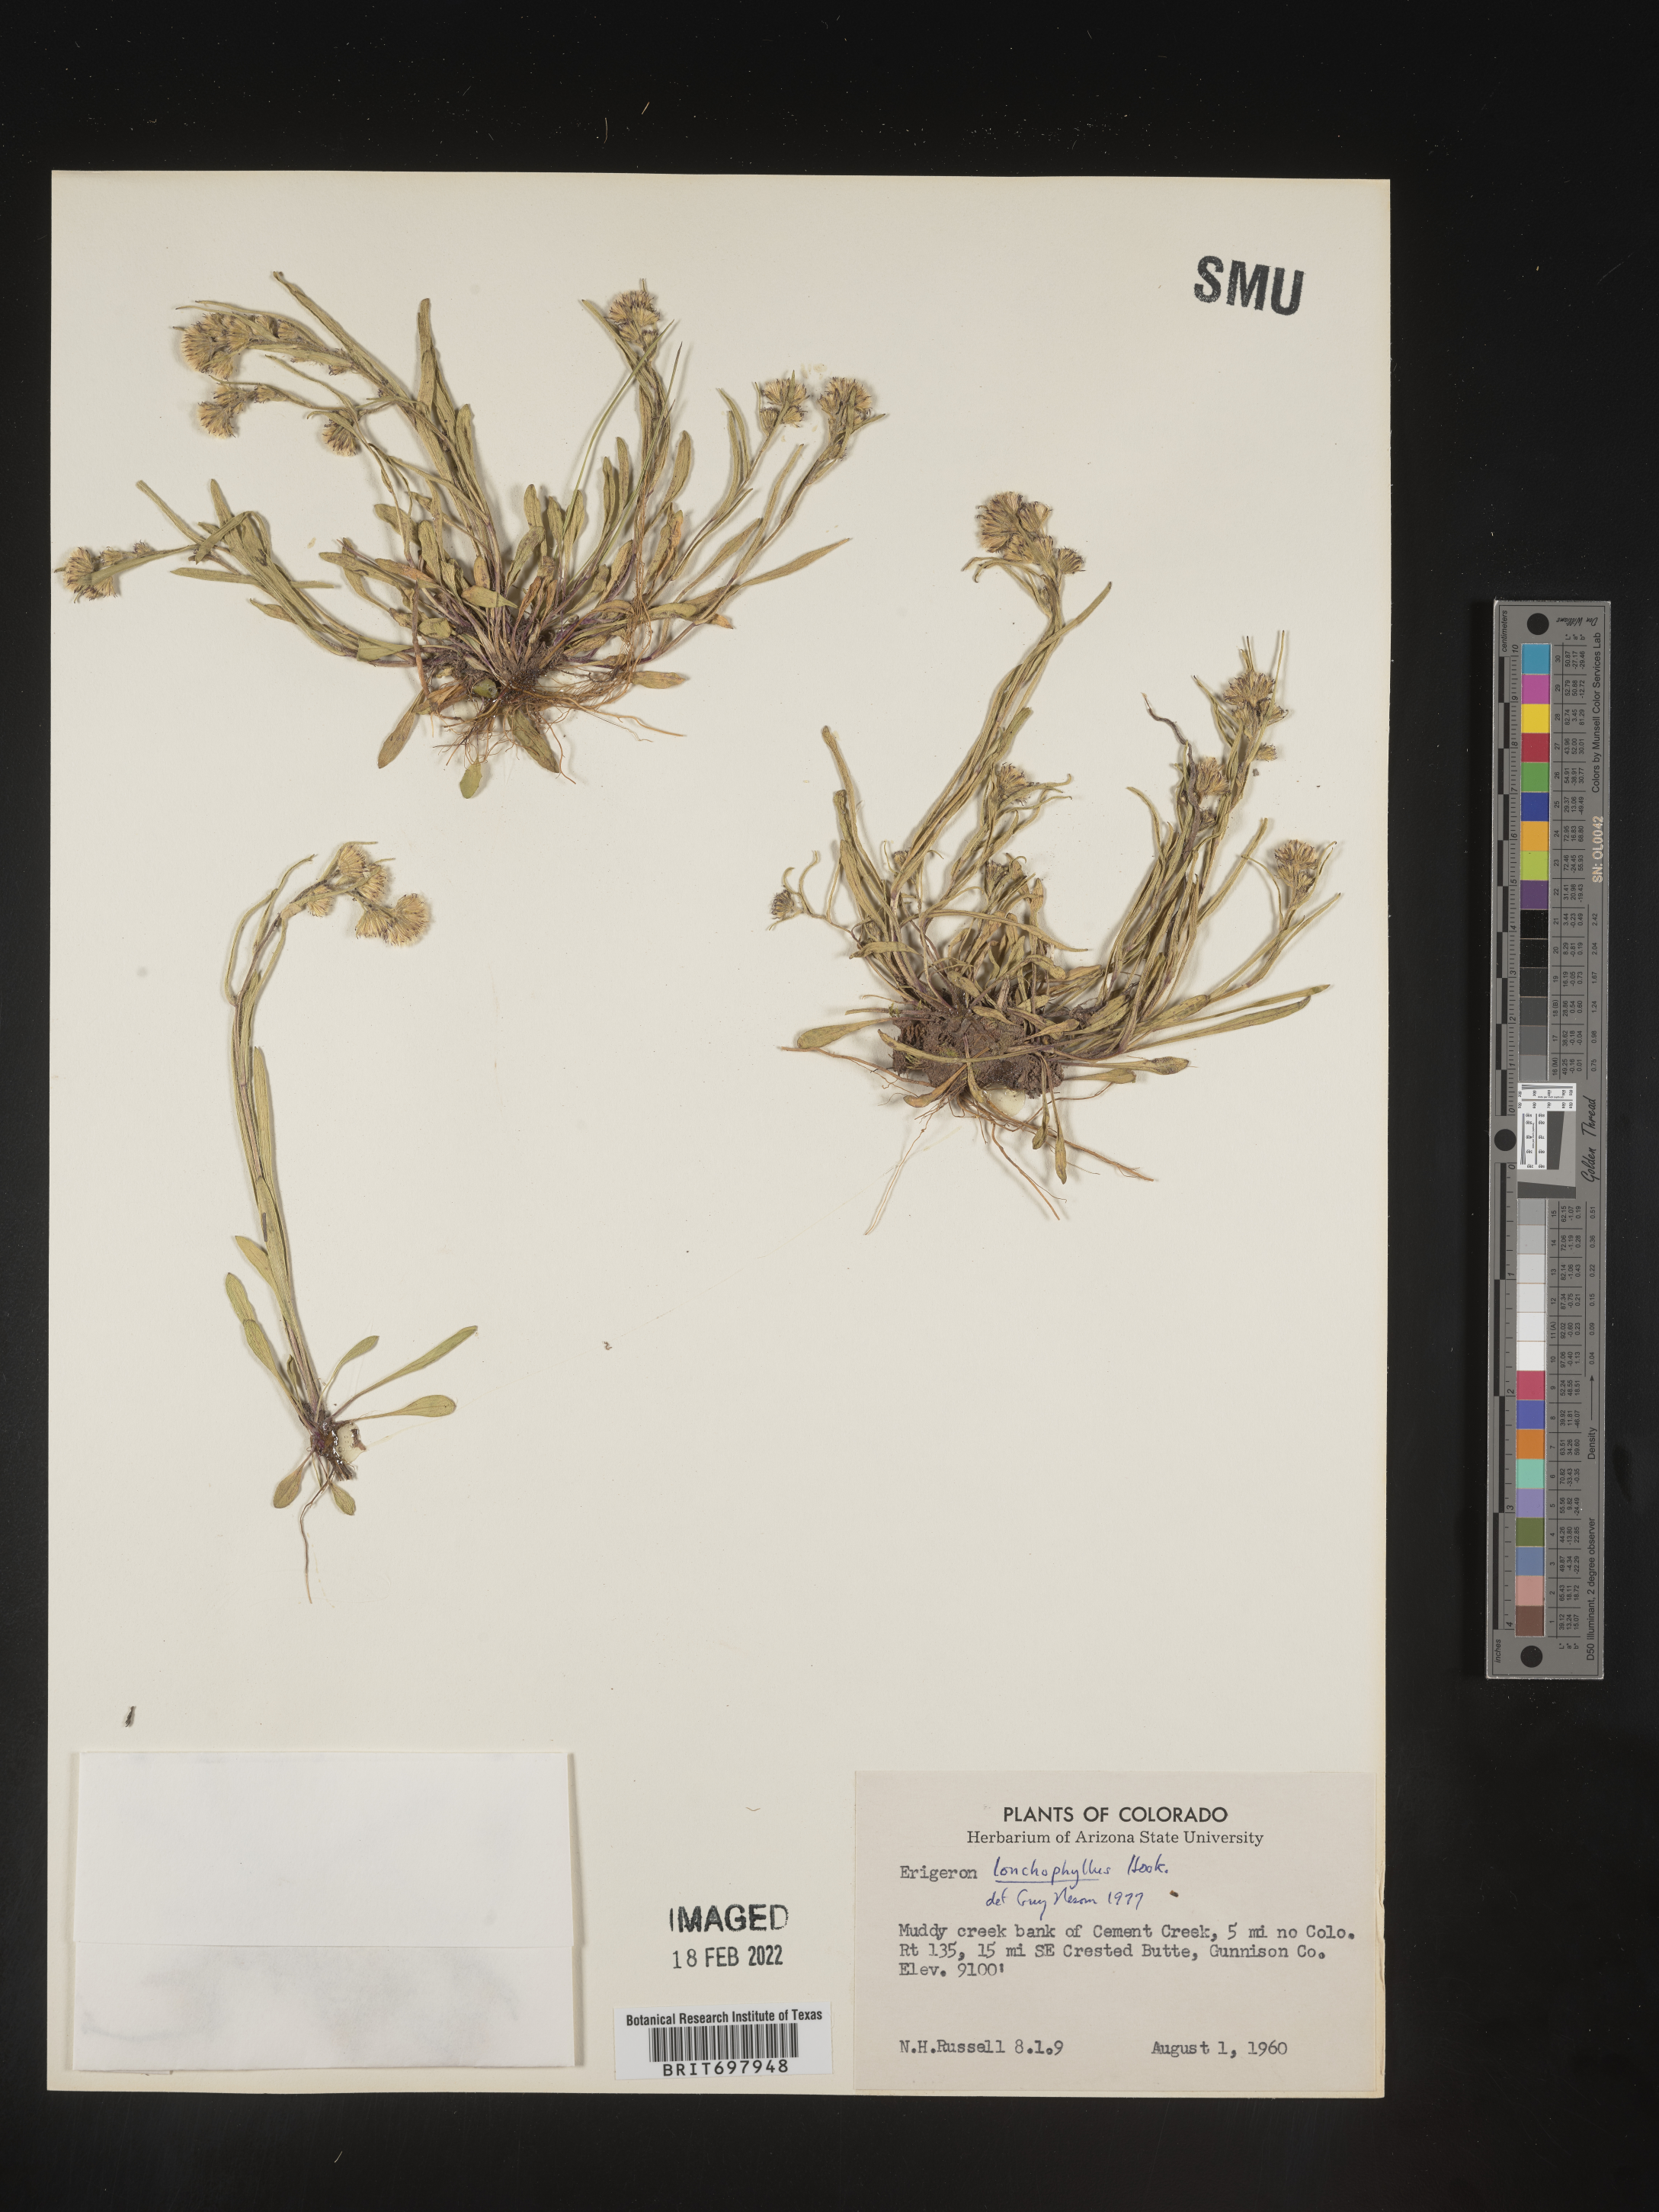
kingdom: Plantae
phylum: Tracheophyta
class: Magnoliopsida
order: Asterales
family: Asteraceae
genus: Erigeron
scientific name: Erigeron lonchophyllus
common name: Short-ray fleabane
